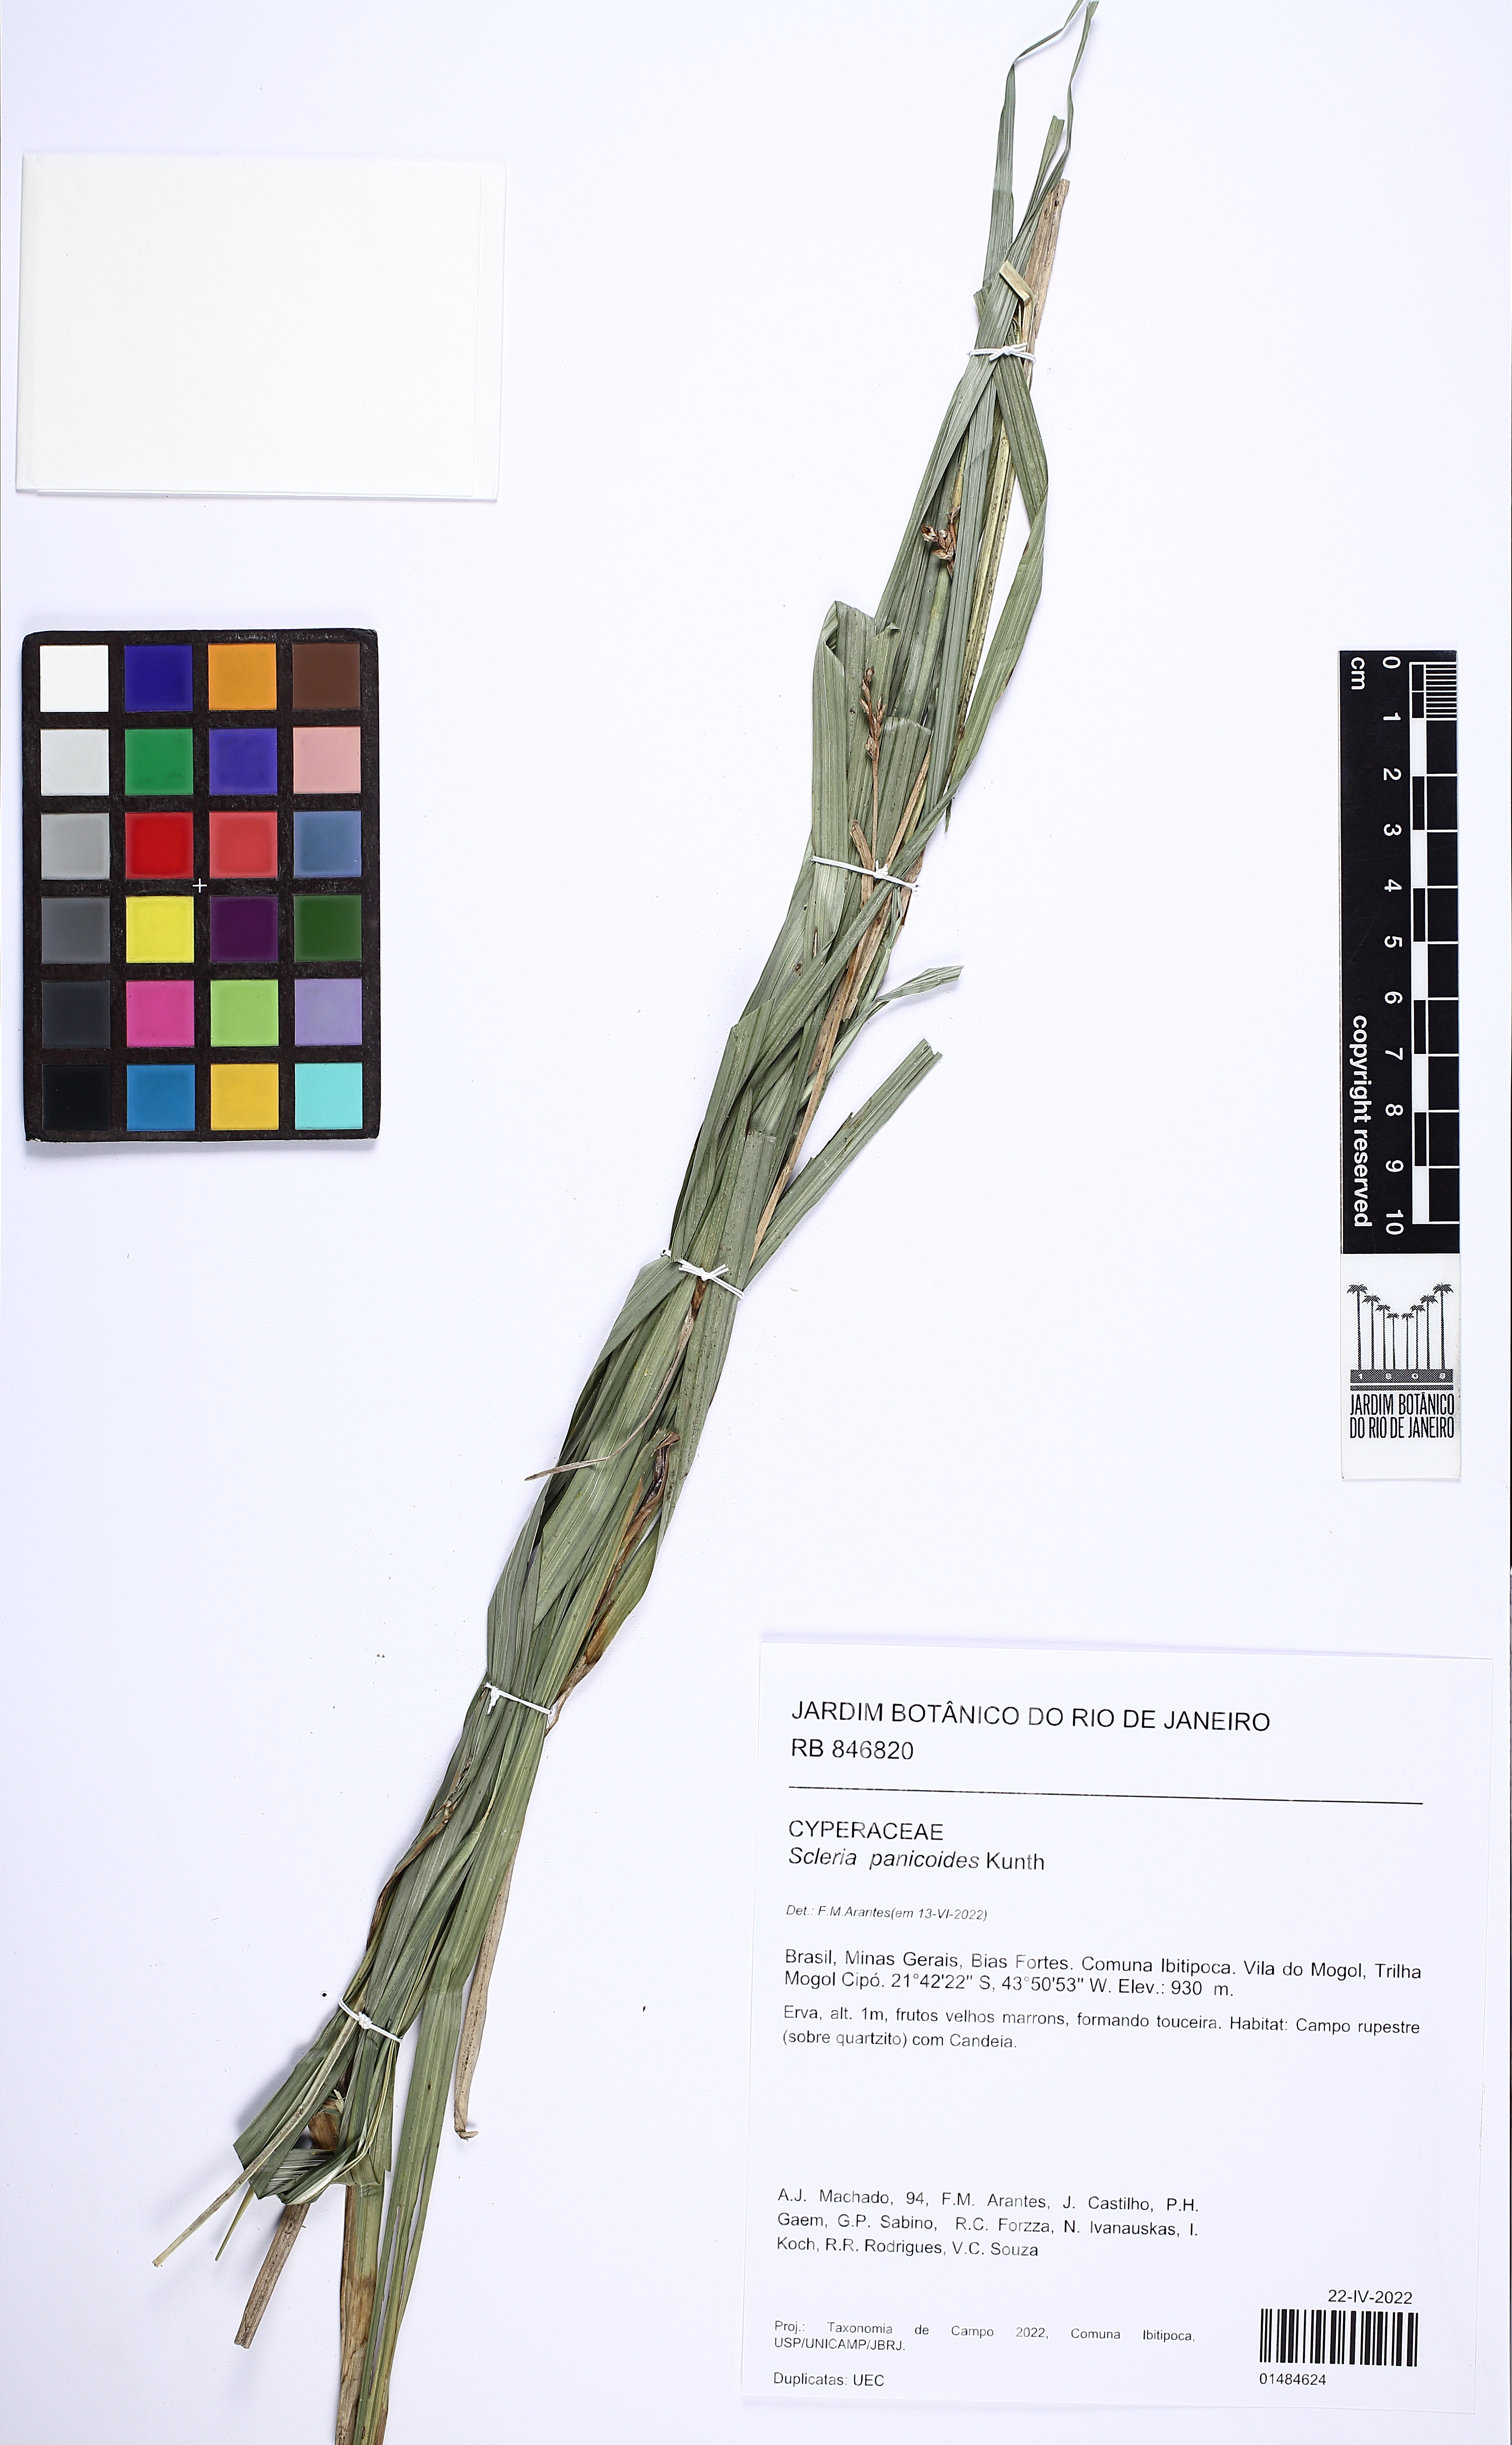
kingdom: Plantae
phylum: Tracheophyta
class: Liliopsida
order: Poales
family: Cyperaceae
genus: Scleria
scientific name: Scleria panicoides
